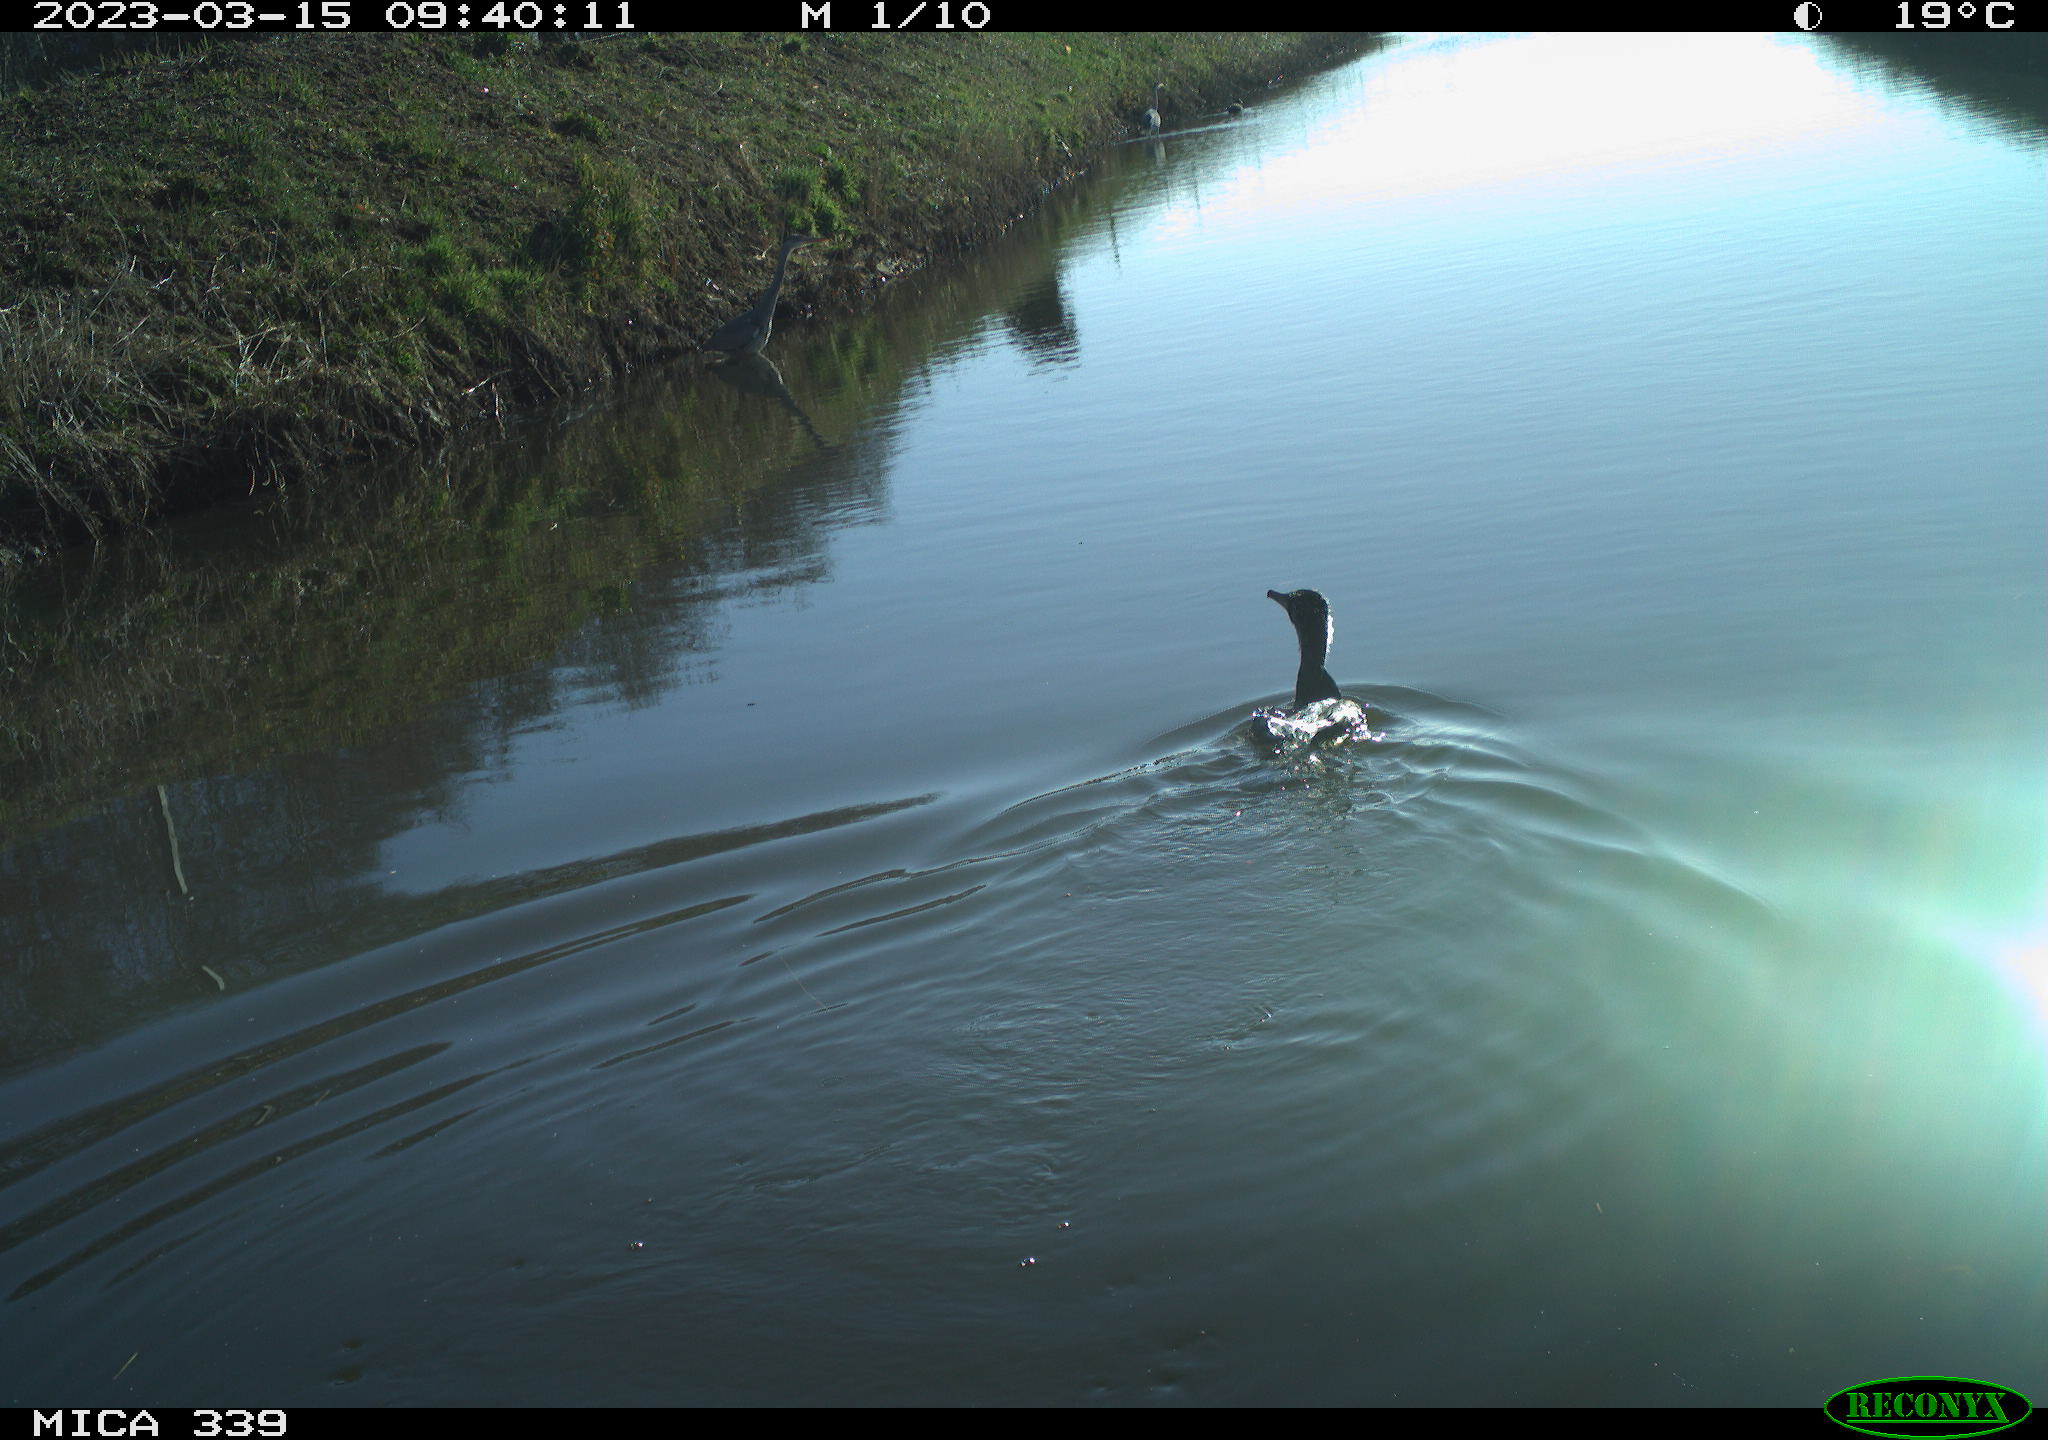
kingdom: Animalia
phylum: Chordata
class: Aves
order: Gruiformes
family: Rallidae
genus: Fulica
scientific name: Fulica atra
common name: Eurasian coot
